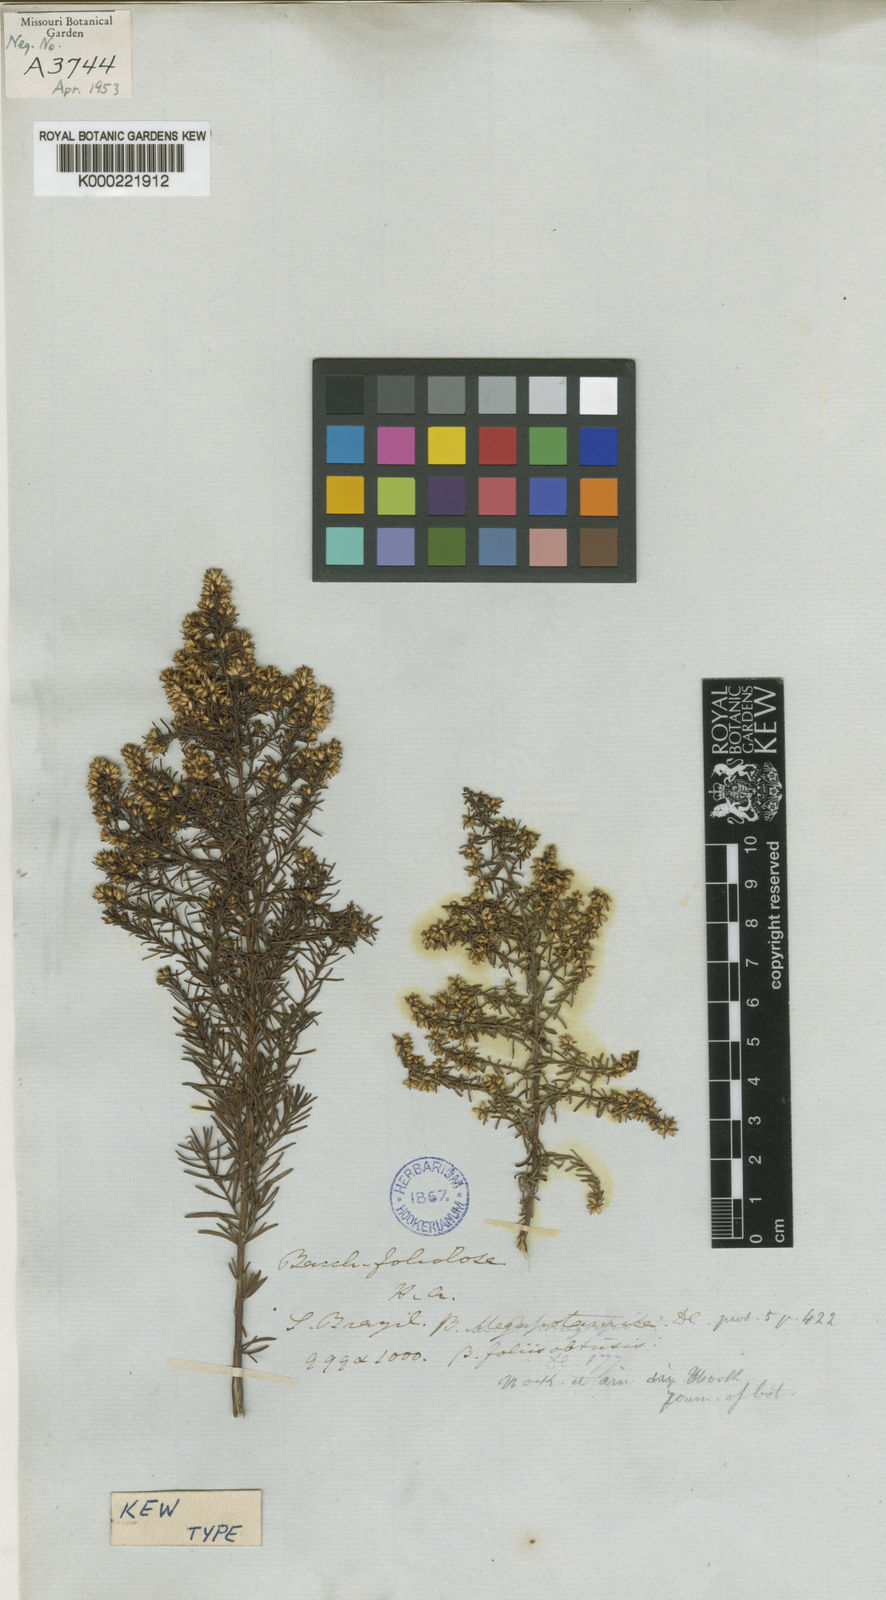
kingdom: Plantae
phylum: Tracheophyta
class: Magnoliopsida
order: Asterales
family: Asteraceae
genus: Baccharis
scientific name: Baccharis leptocephala
